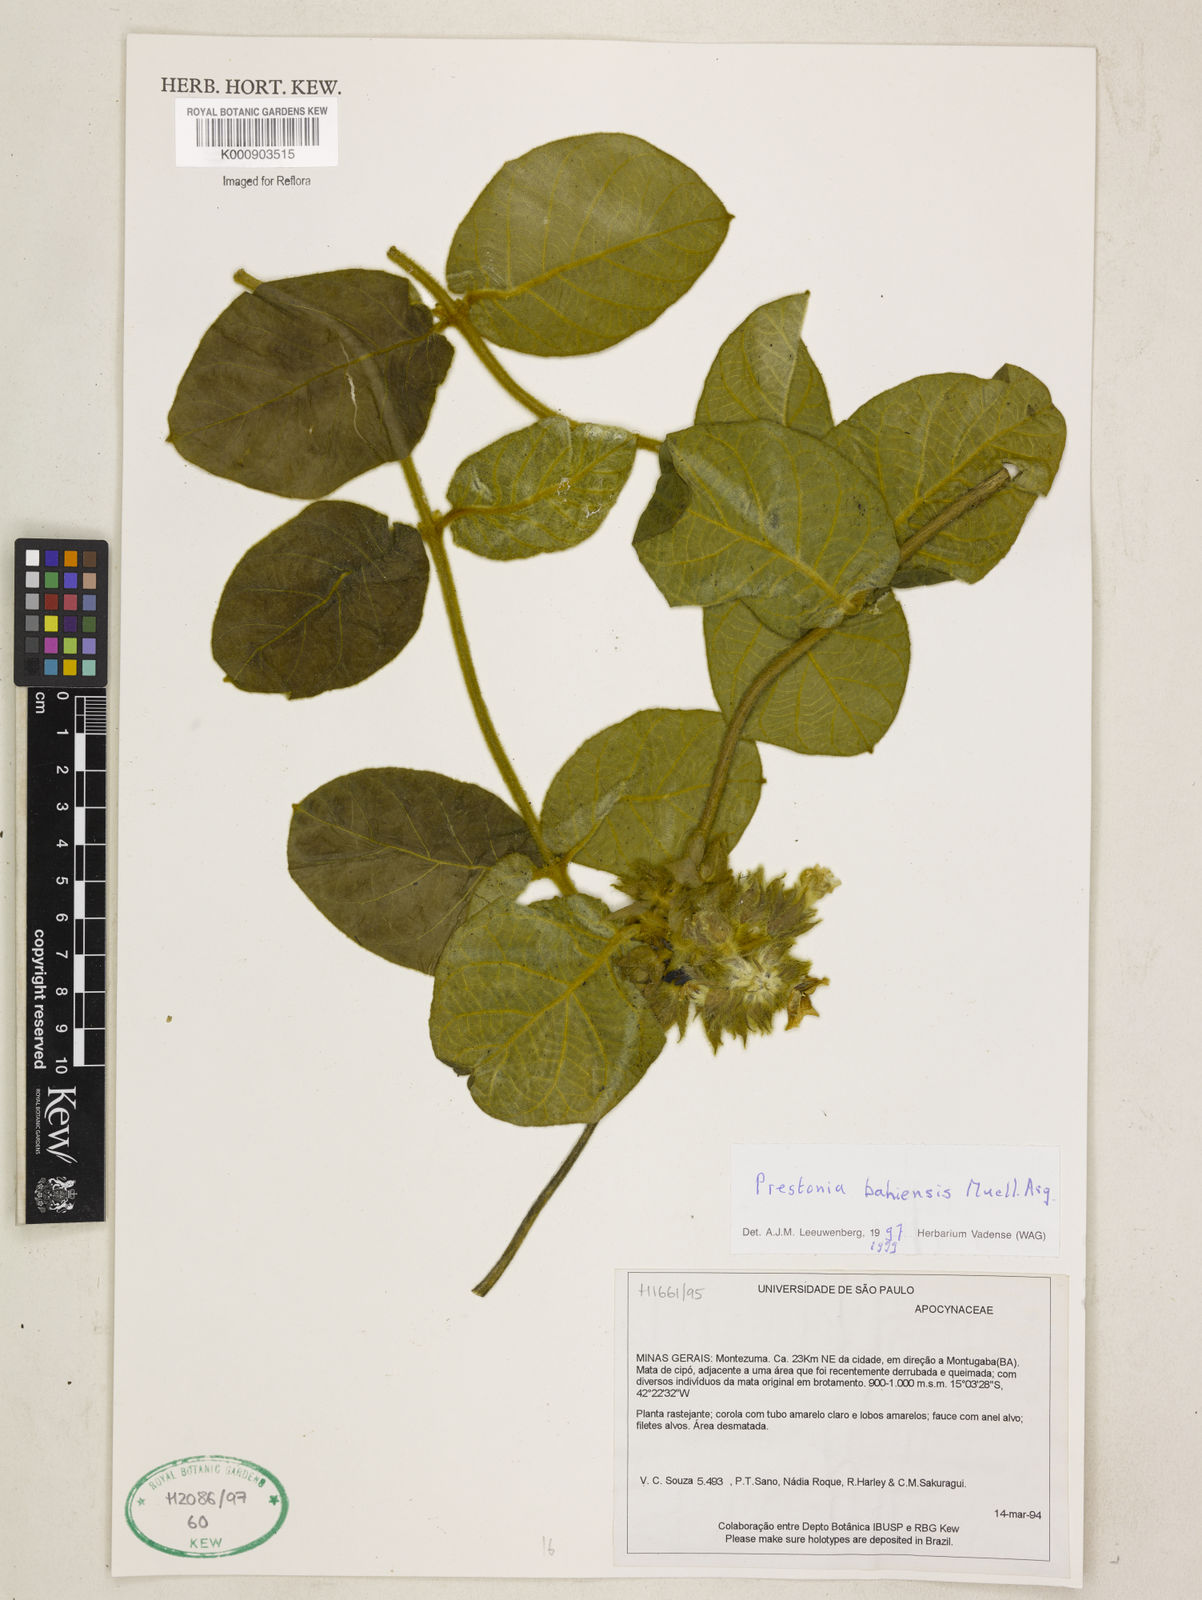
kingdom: Plantae
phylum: Tracheophyta
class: Magnoliopsida
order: Gentianales
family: Apocynaceae
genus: Prestonia
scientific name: Prestonia
